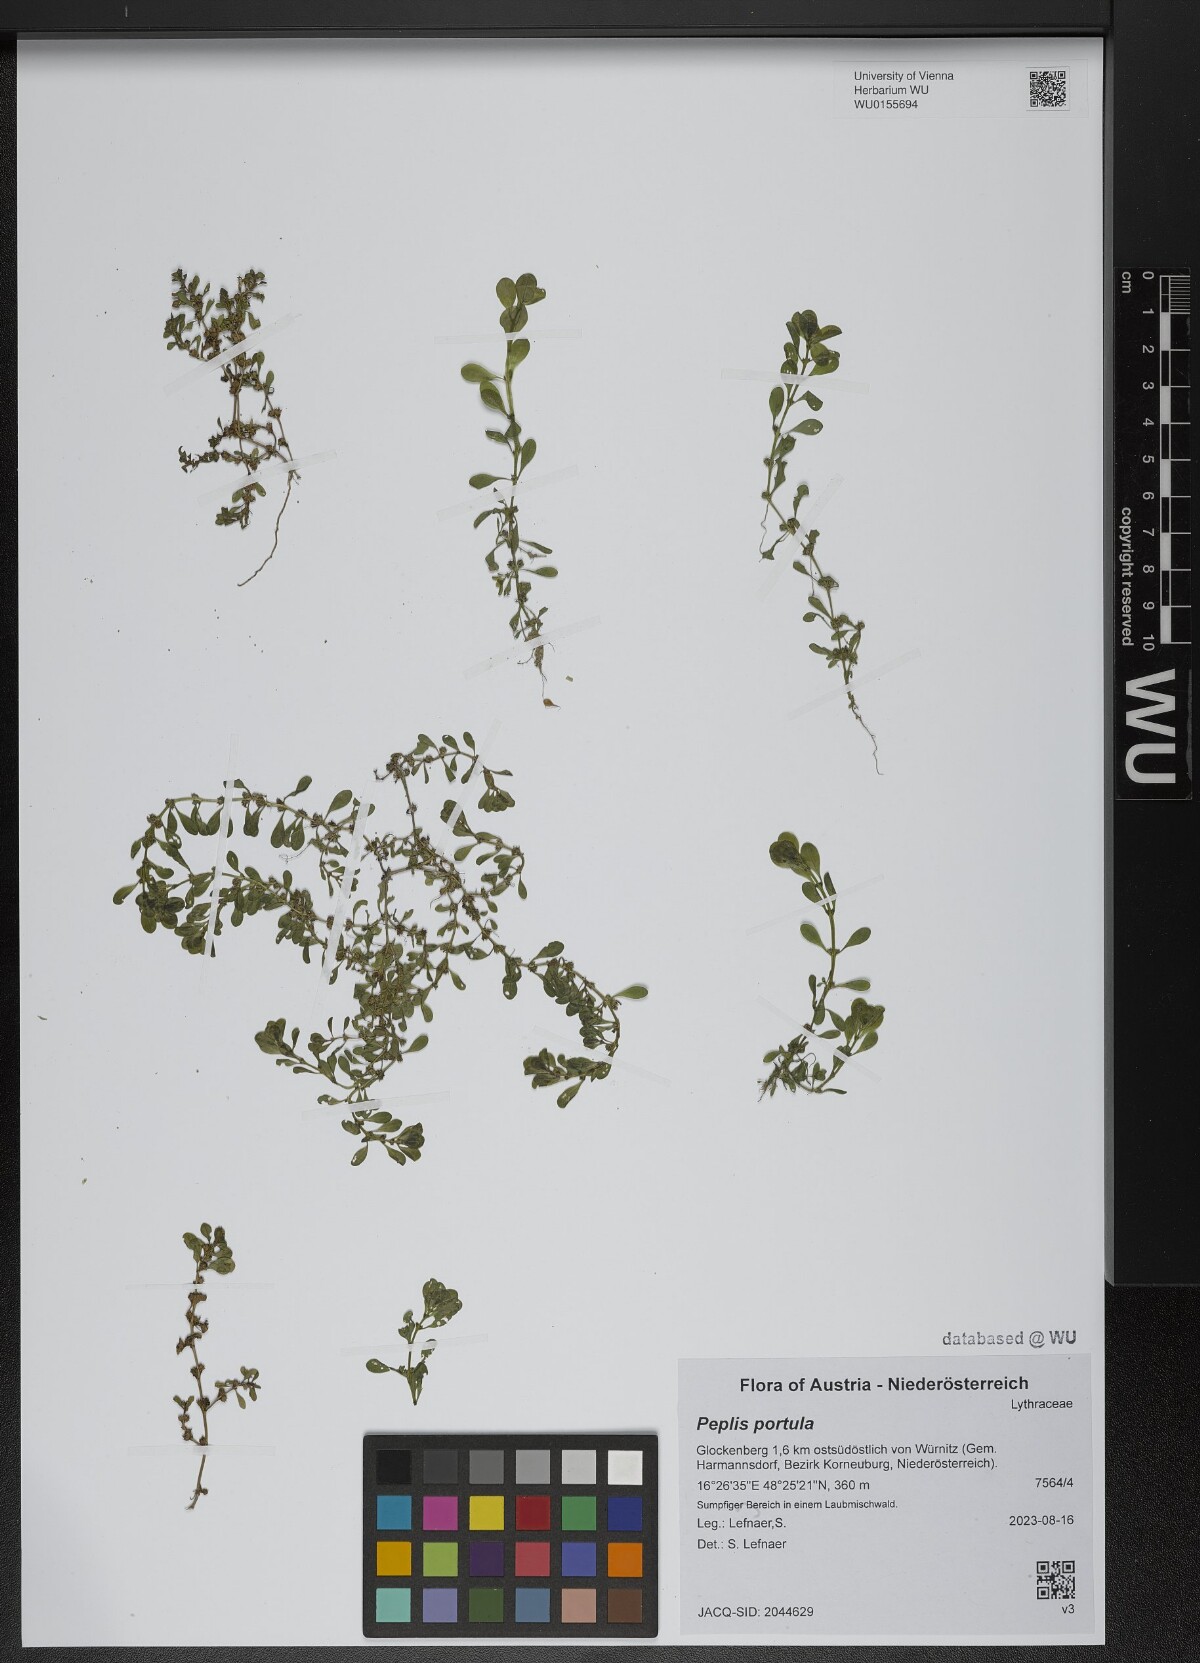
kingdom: Plantae
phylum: Tracheophyta
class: Magnoliopsida
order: Myrtales
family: Lythraceae
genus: Lythrum
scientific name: Lythrum portula
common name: Water purslane
